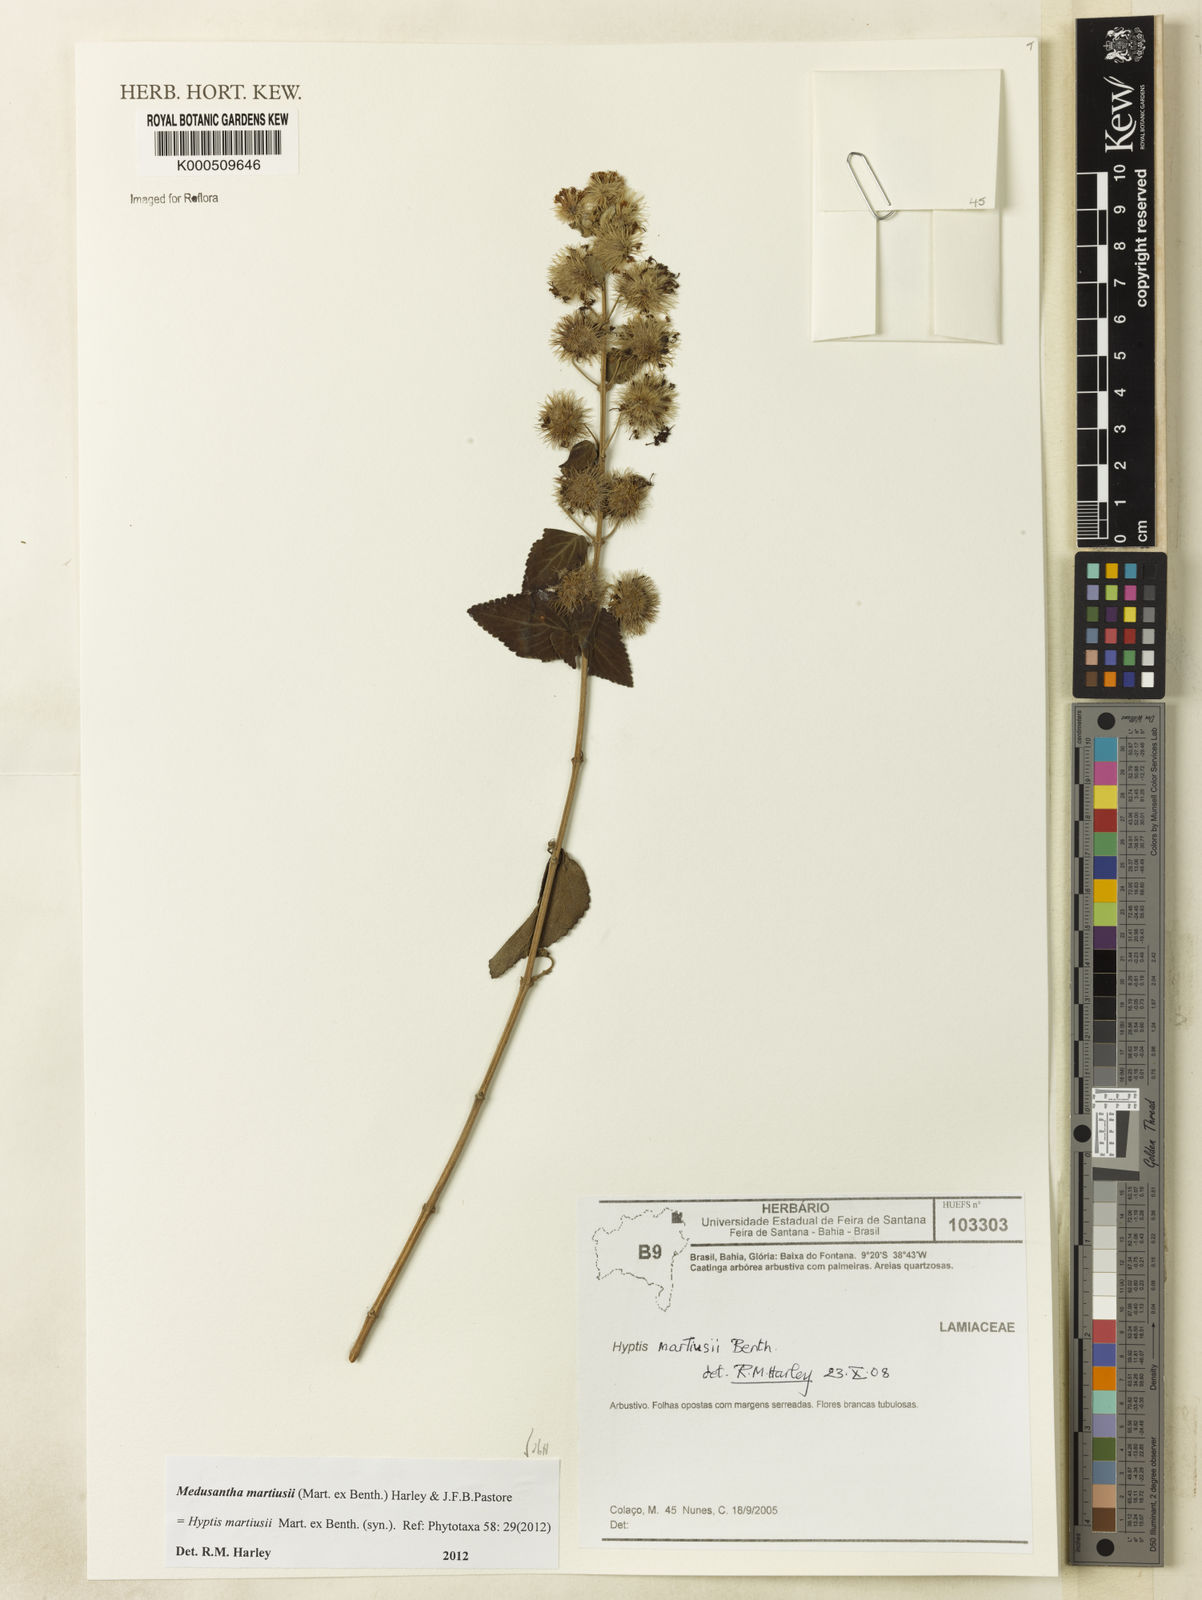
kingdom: Plantae
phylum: Tracheophyta
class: Magnoliopsida
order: Lamiales
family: Lamiaceae
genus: Medusantha
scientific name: Medusantha martiusii
